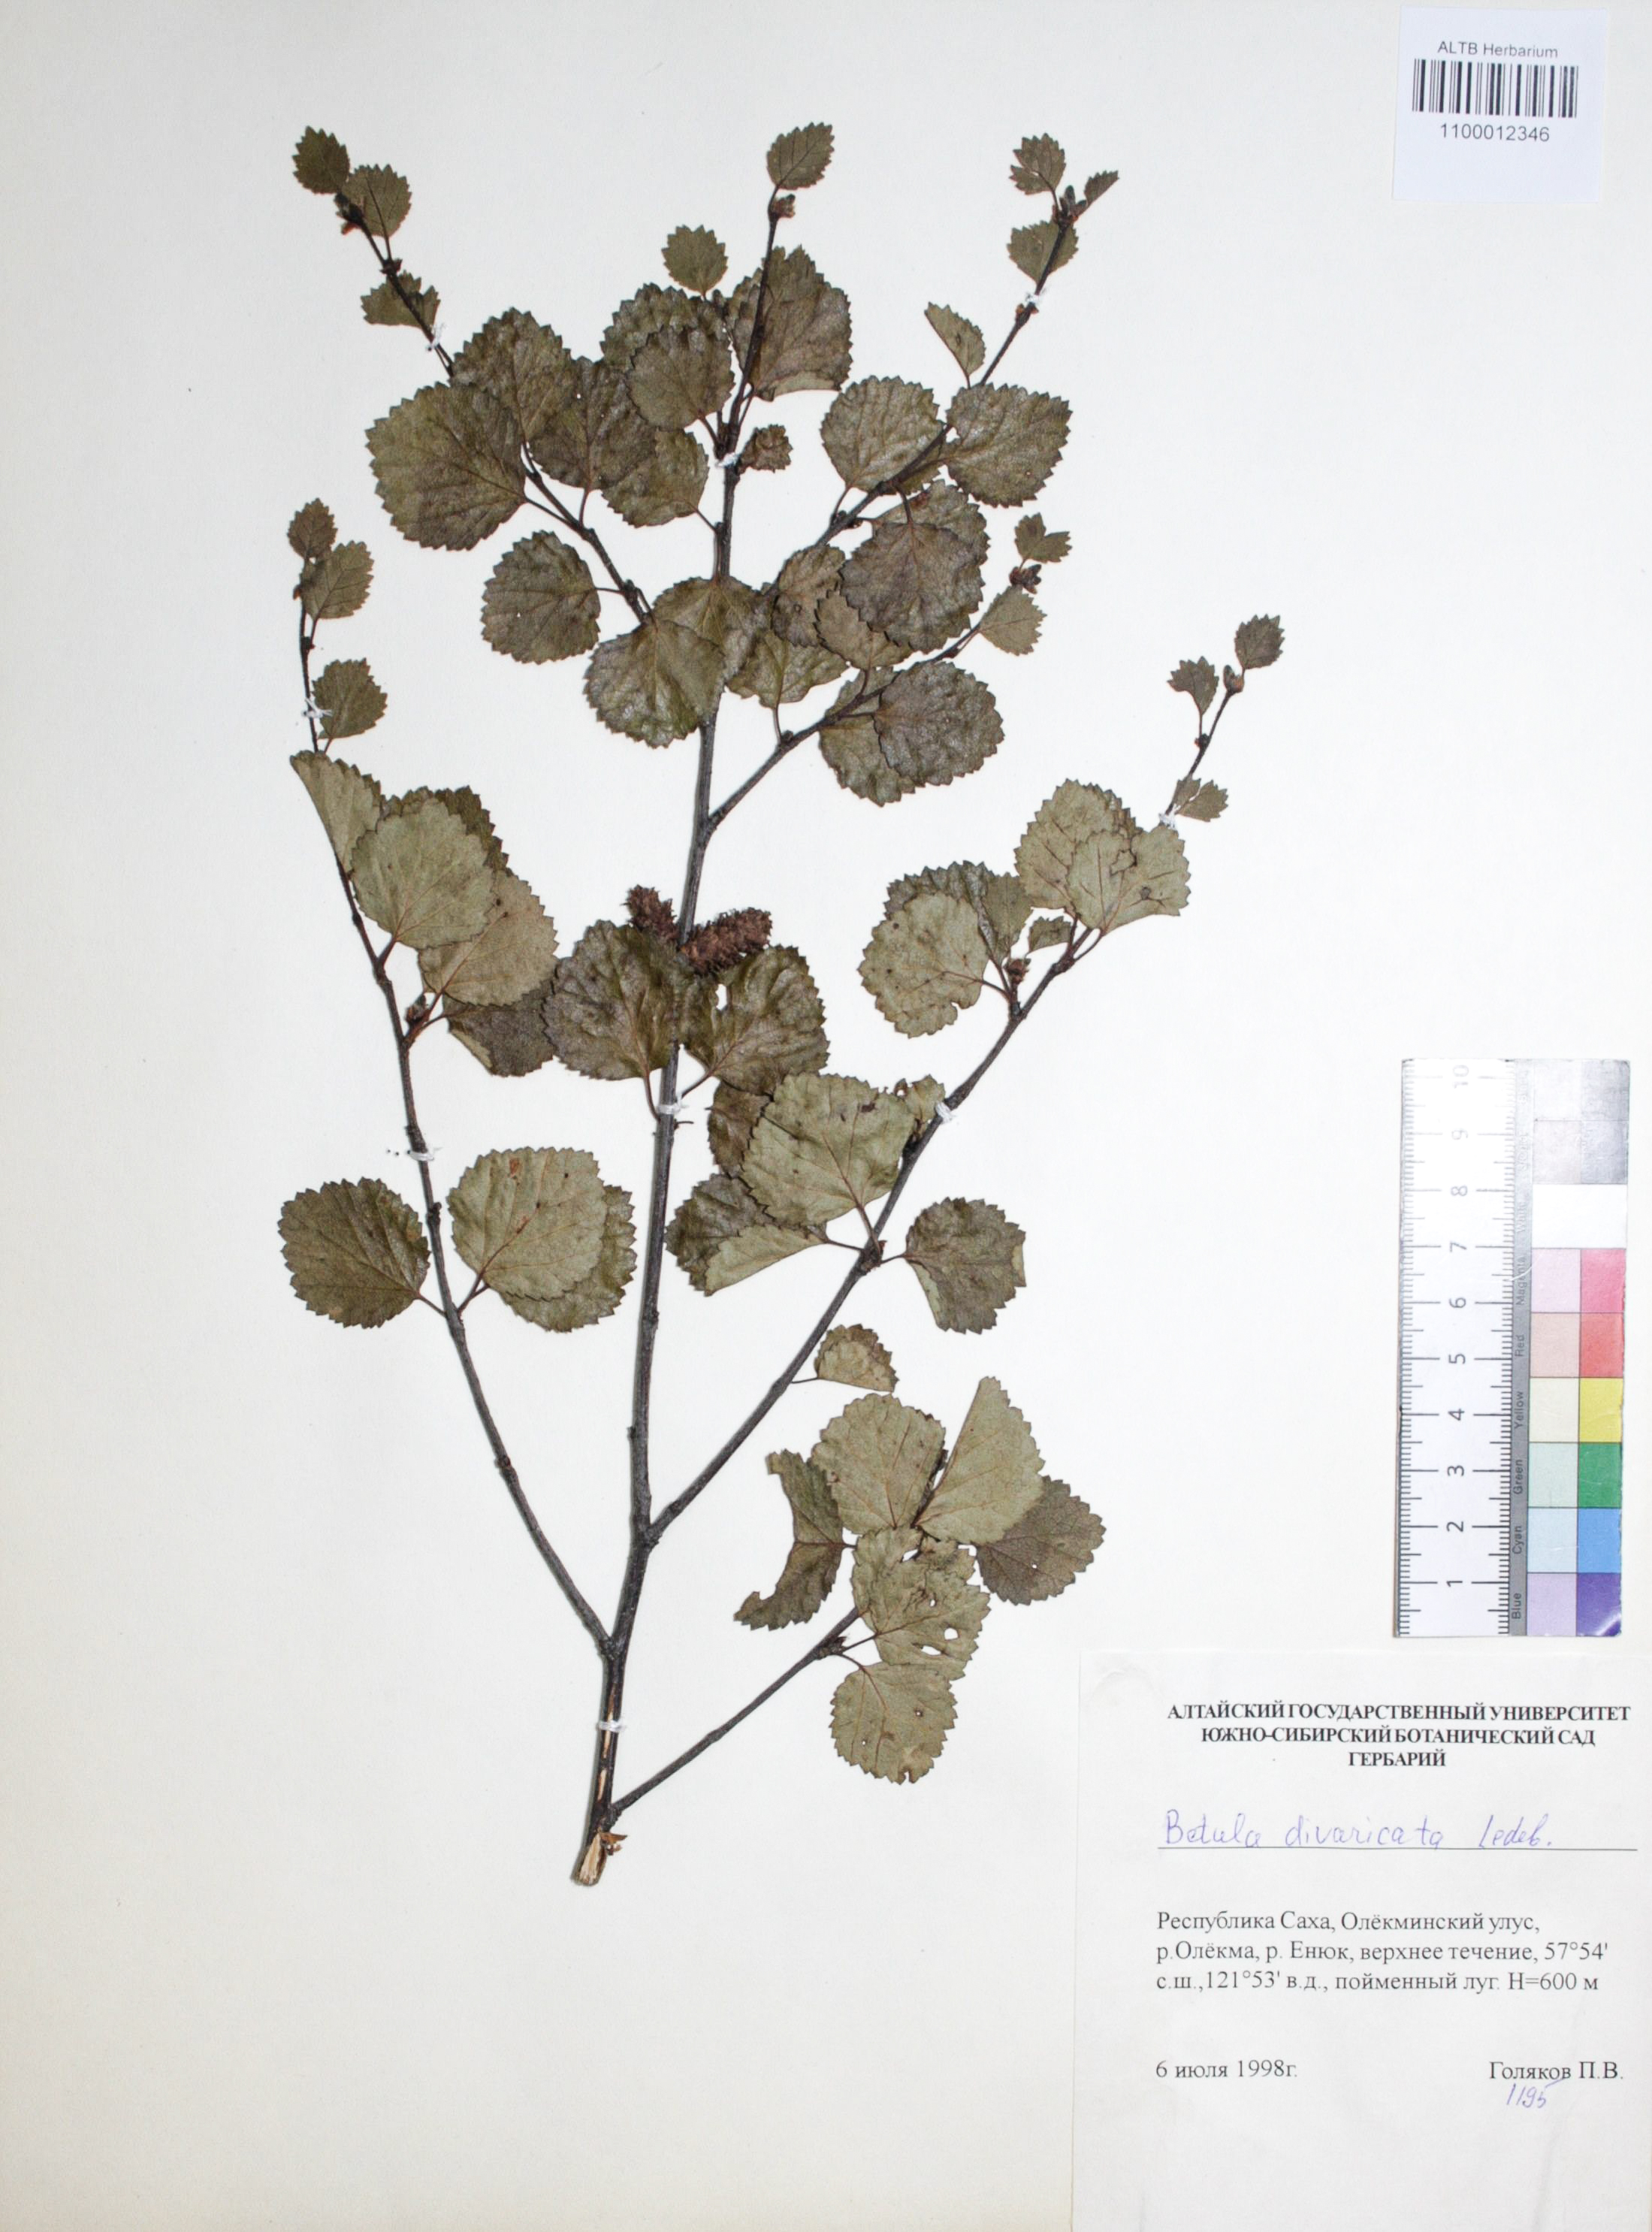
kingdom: Plantae
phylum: Tracheophyta
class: Magnoliopsida
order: Fagales
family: Betulaceae
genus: Betula
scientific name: Betula fruticosa
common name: Japanese bog birch
